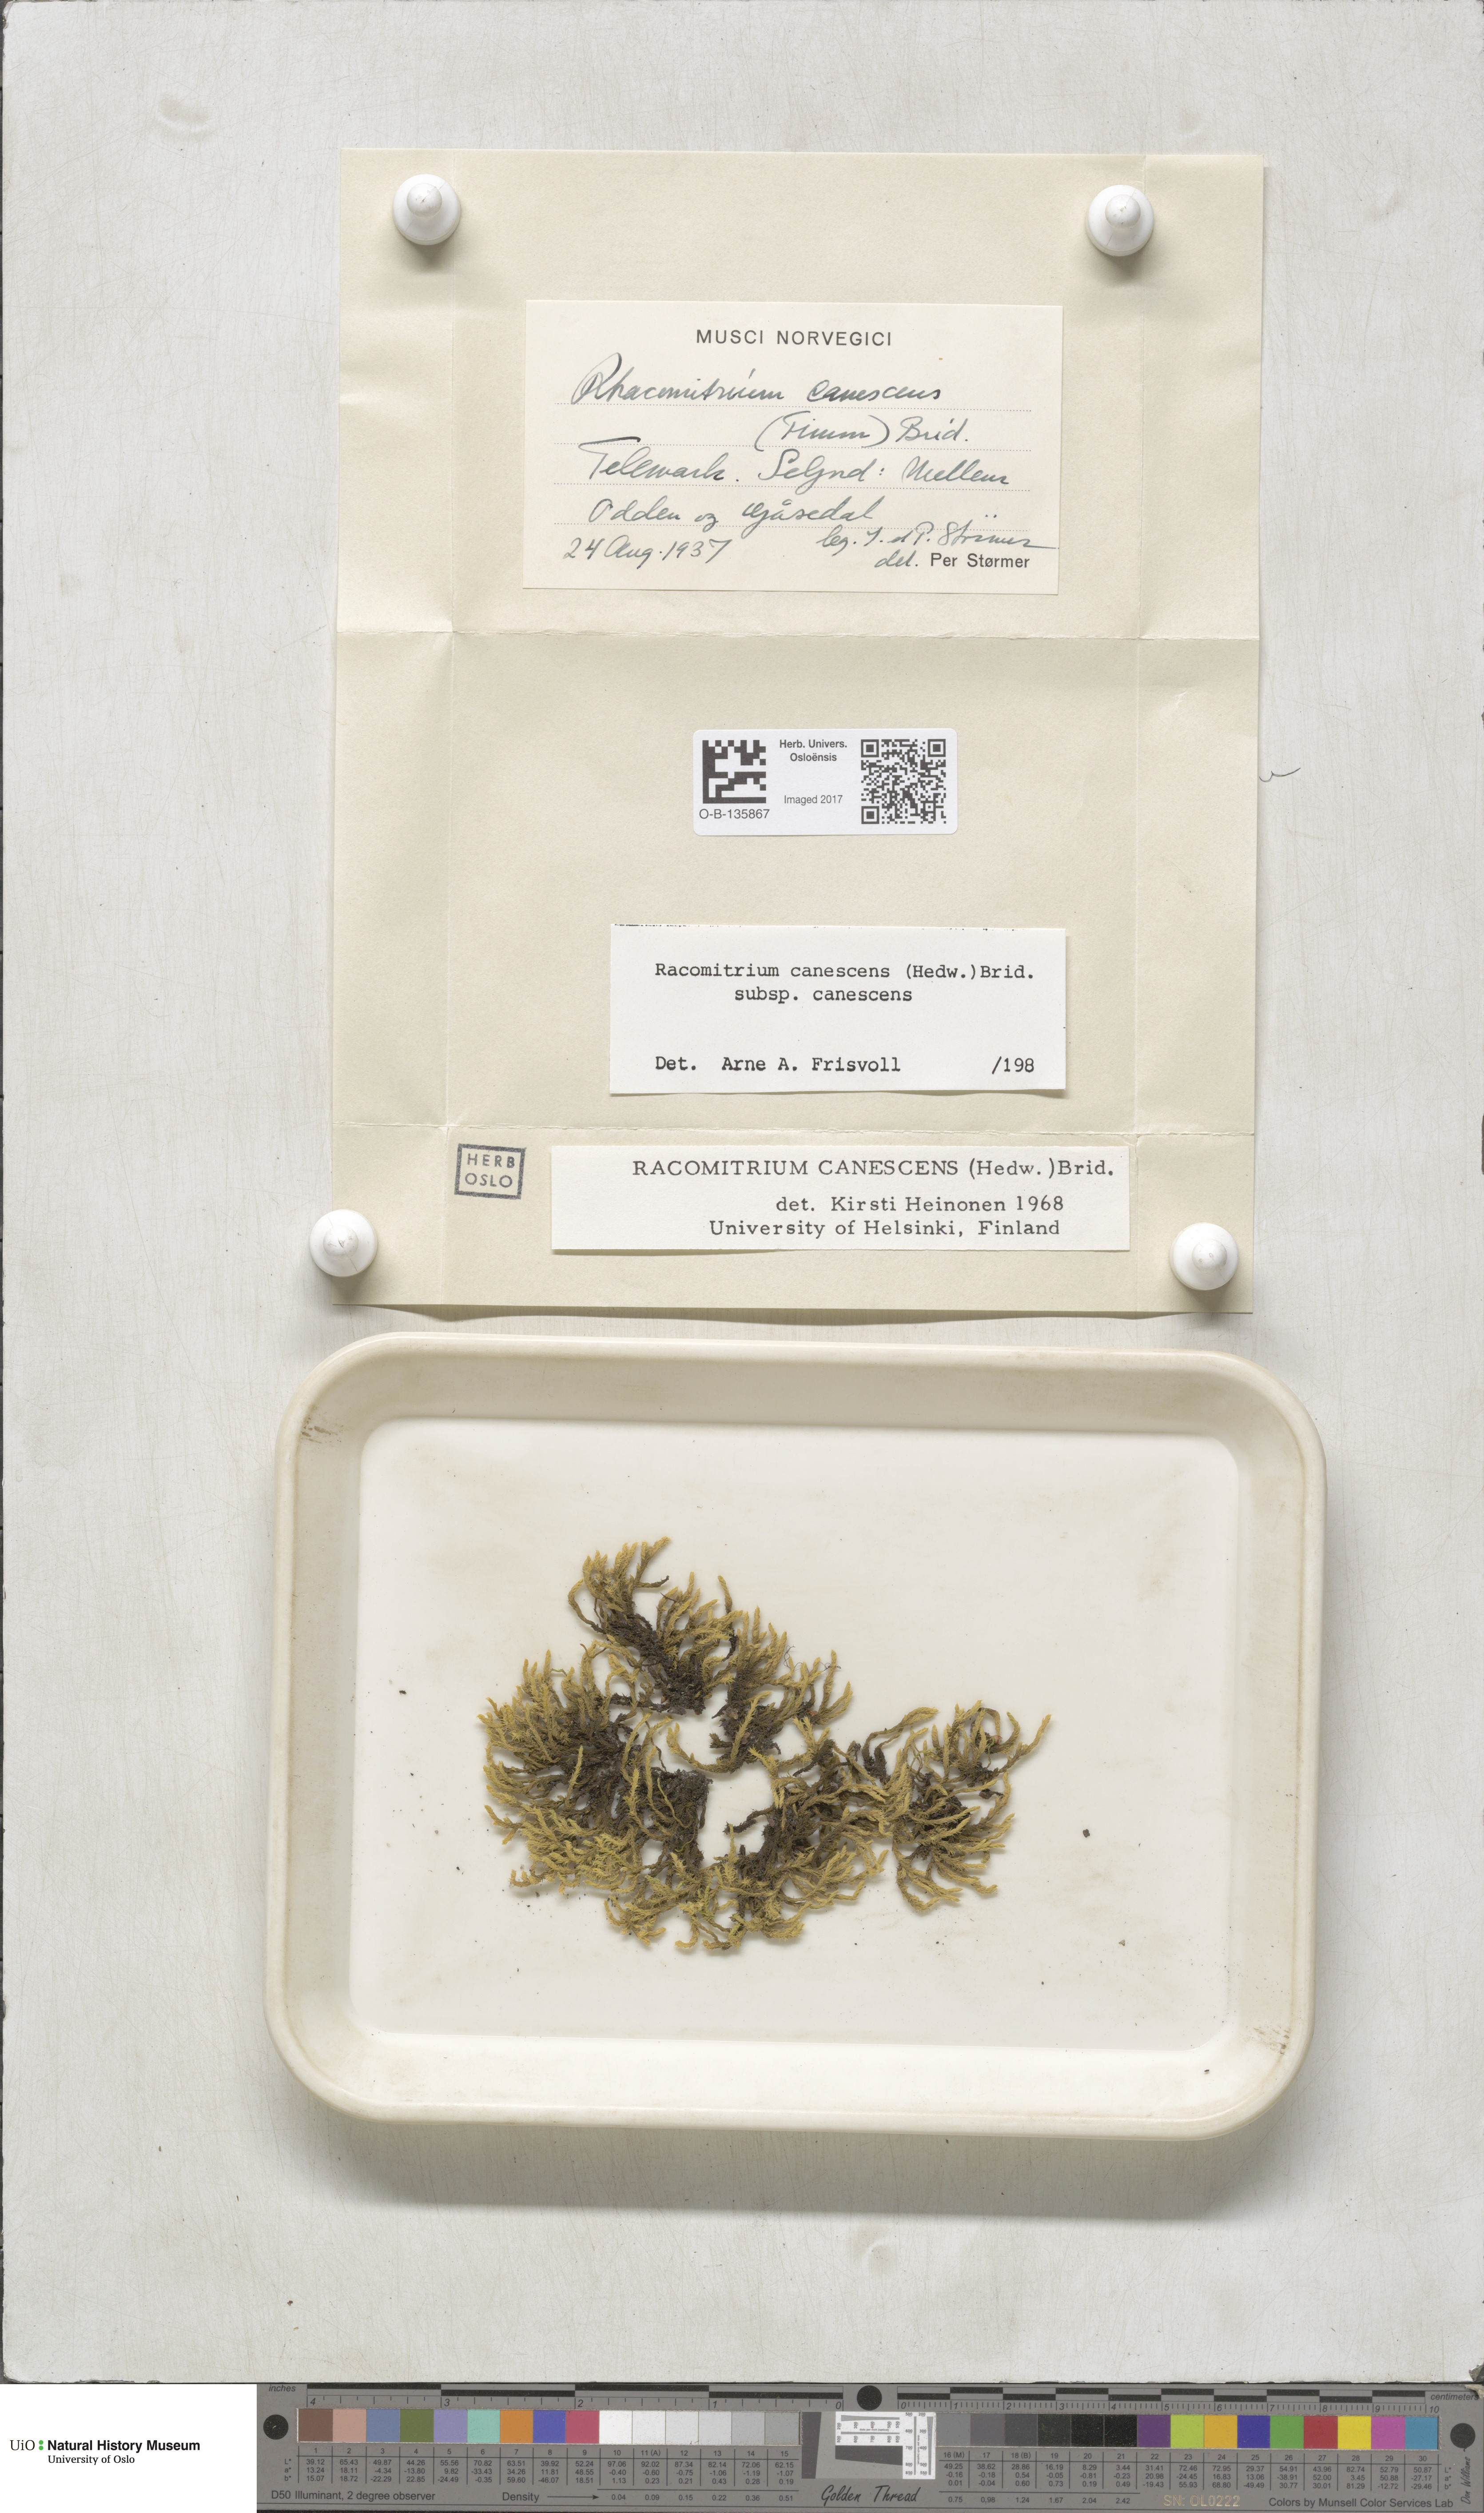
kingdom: Plantae
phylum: Bryophyta
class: Bryopsida
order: Grimmiales
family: Grimmiaceae
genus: Niphotrichum
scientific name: Niphotrichum canescens
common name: Hoary fringe-moss
